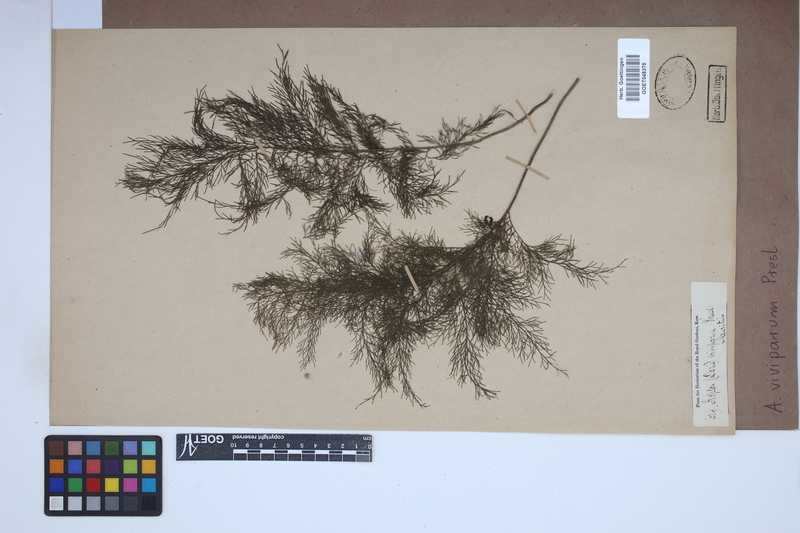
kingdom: Plantae
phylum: Tracheophyta
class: Polypodiopsida
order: Polypodiales
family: Aspleniaceae
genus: Asplenium
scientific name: Asplenium daucifolium
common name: Mauritius spleenwort
